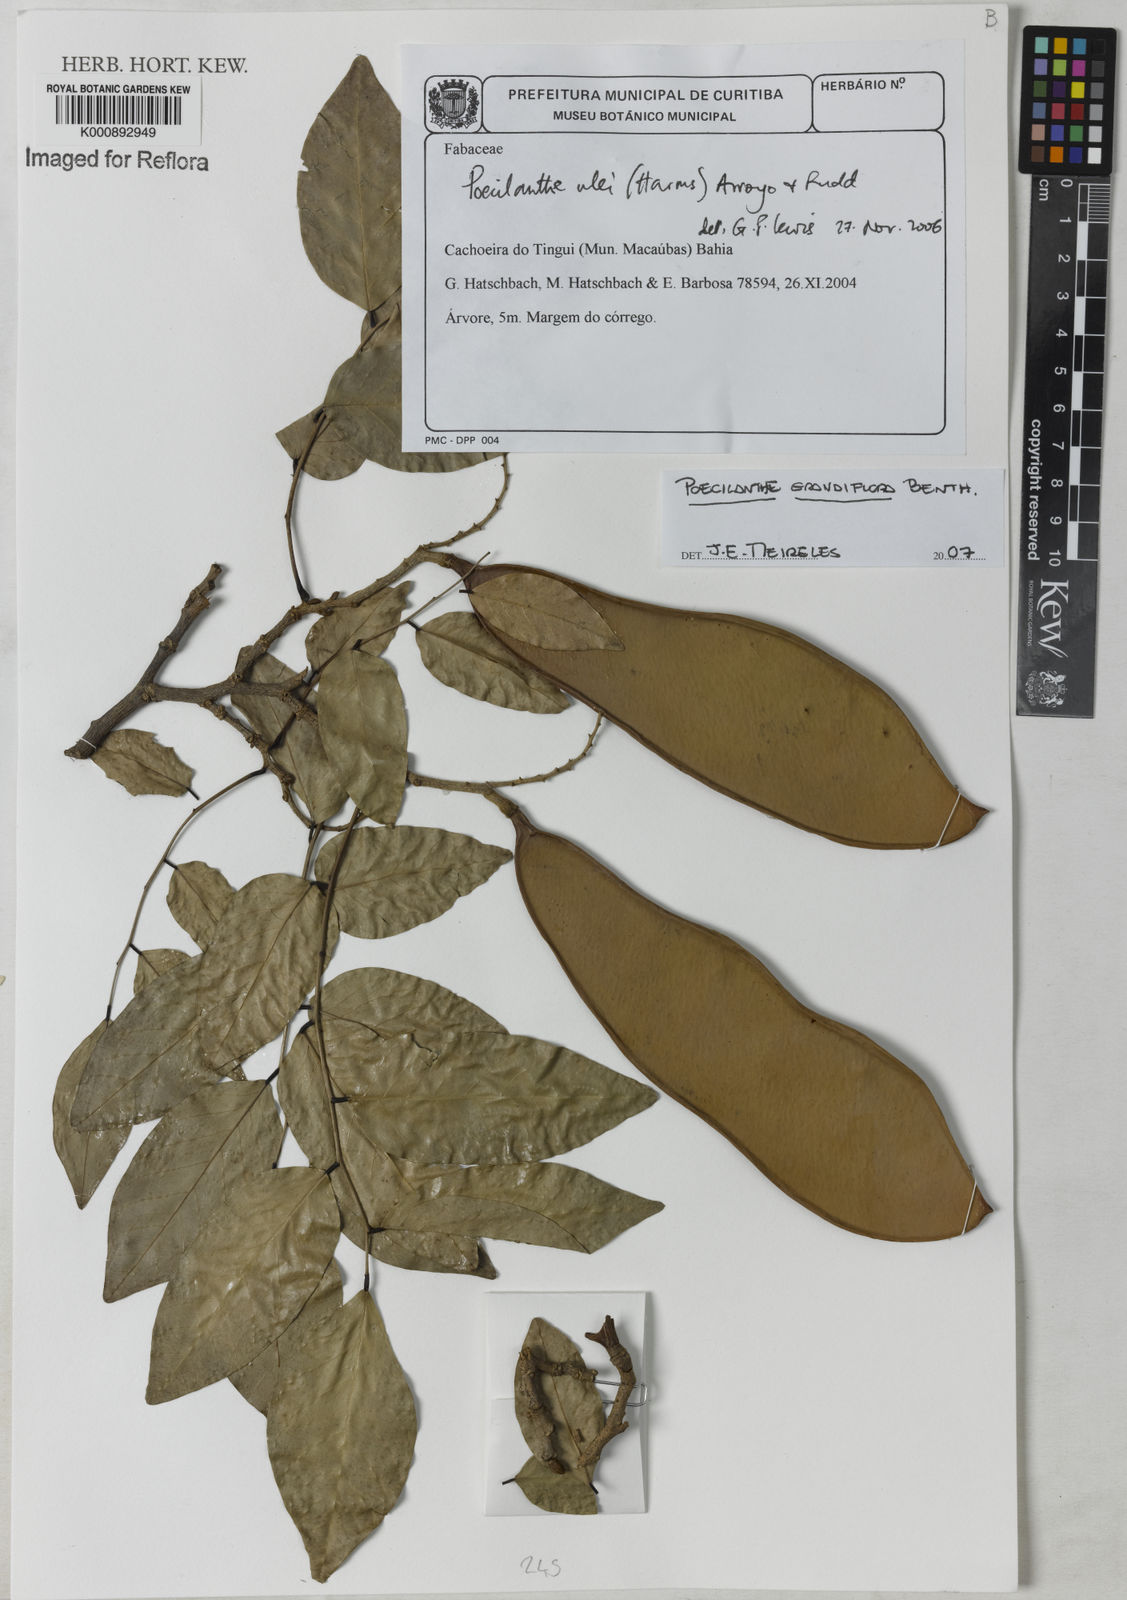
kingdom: Plantae
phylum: Tracheophyta
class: Magnoliopsida
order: Fabales
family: Fabaceae
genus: Poecilanthe
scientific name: Poecilanthe grandiflora
